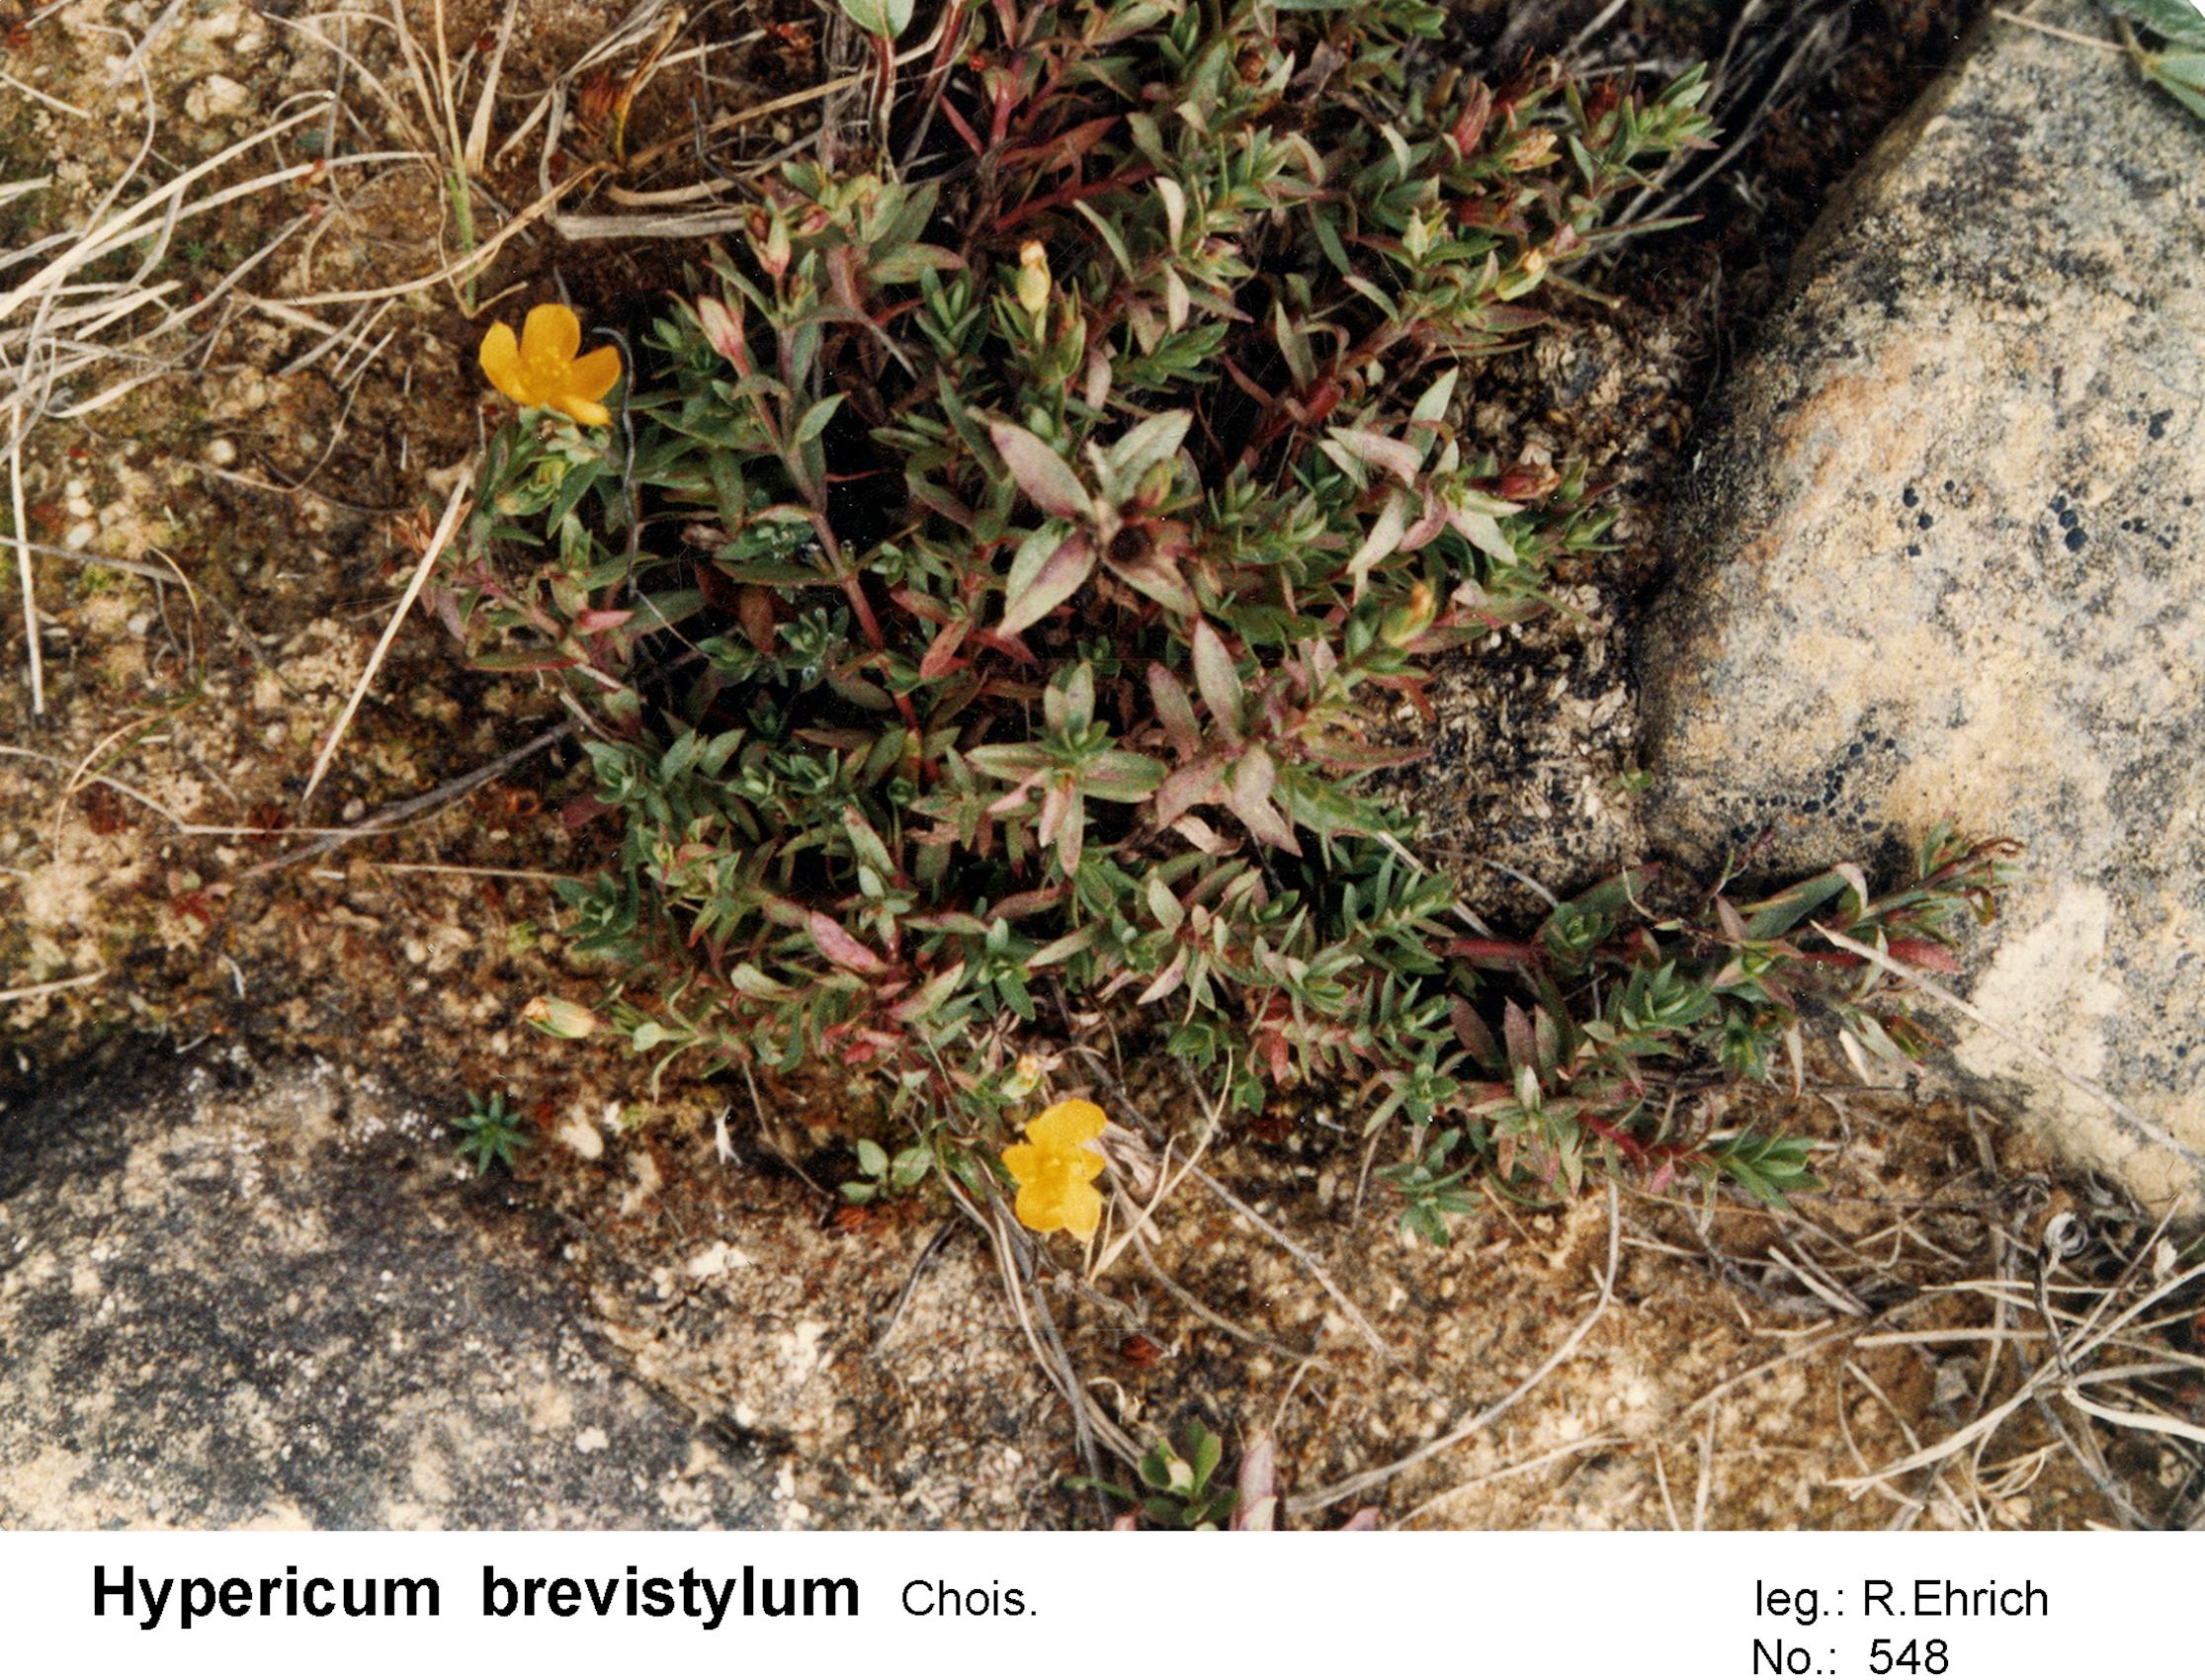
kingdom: Plantae
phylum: Tracheophyta
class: Magnoliopsida
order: Malpighiales
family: Hypericaceae
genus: Hypericum
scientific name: Hypericum brevistylum
